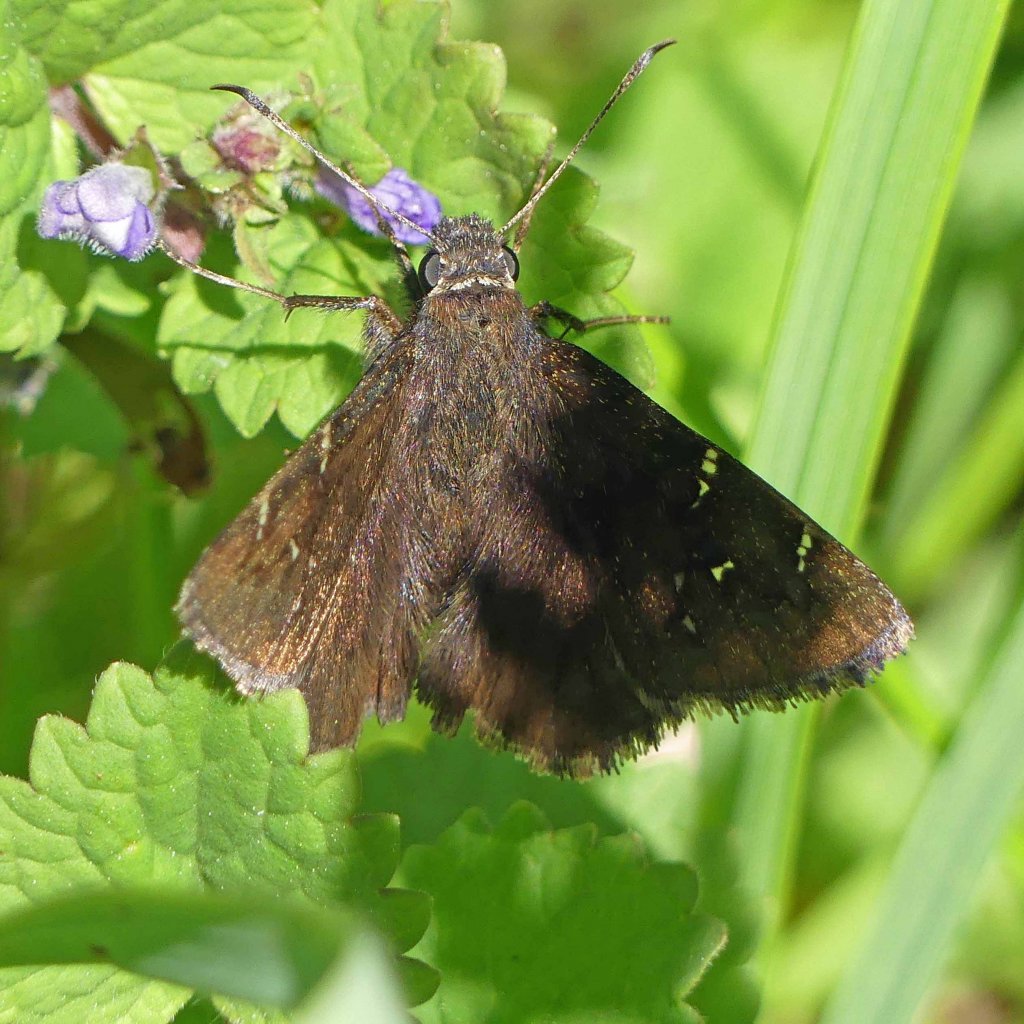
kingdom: Animalia
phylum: Arthropoda
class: Insecta
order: Lepidoptera
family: Hesperiidae
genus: Autochton
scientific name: Autochton
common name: Northern Cloudywing
